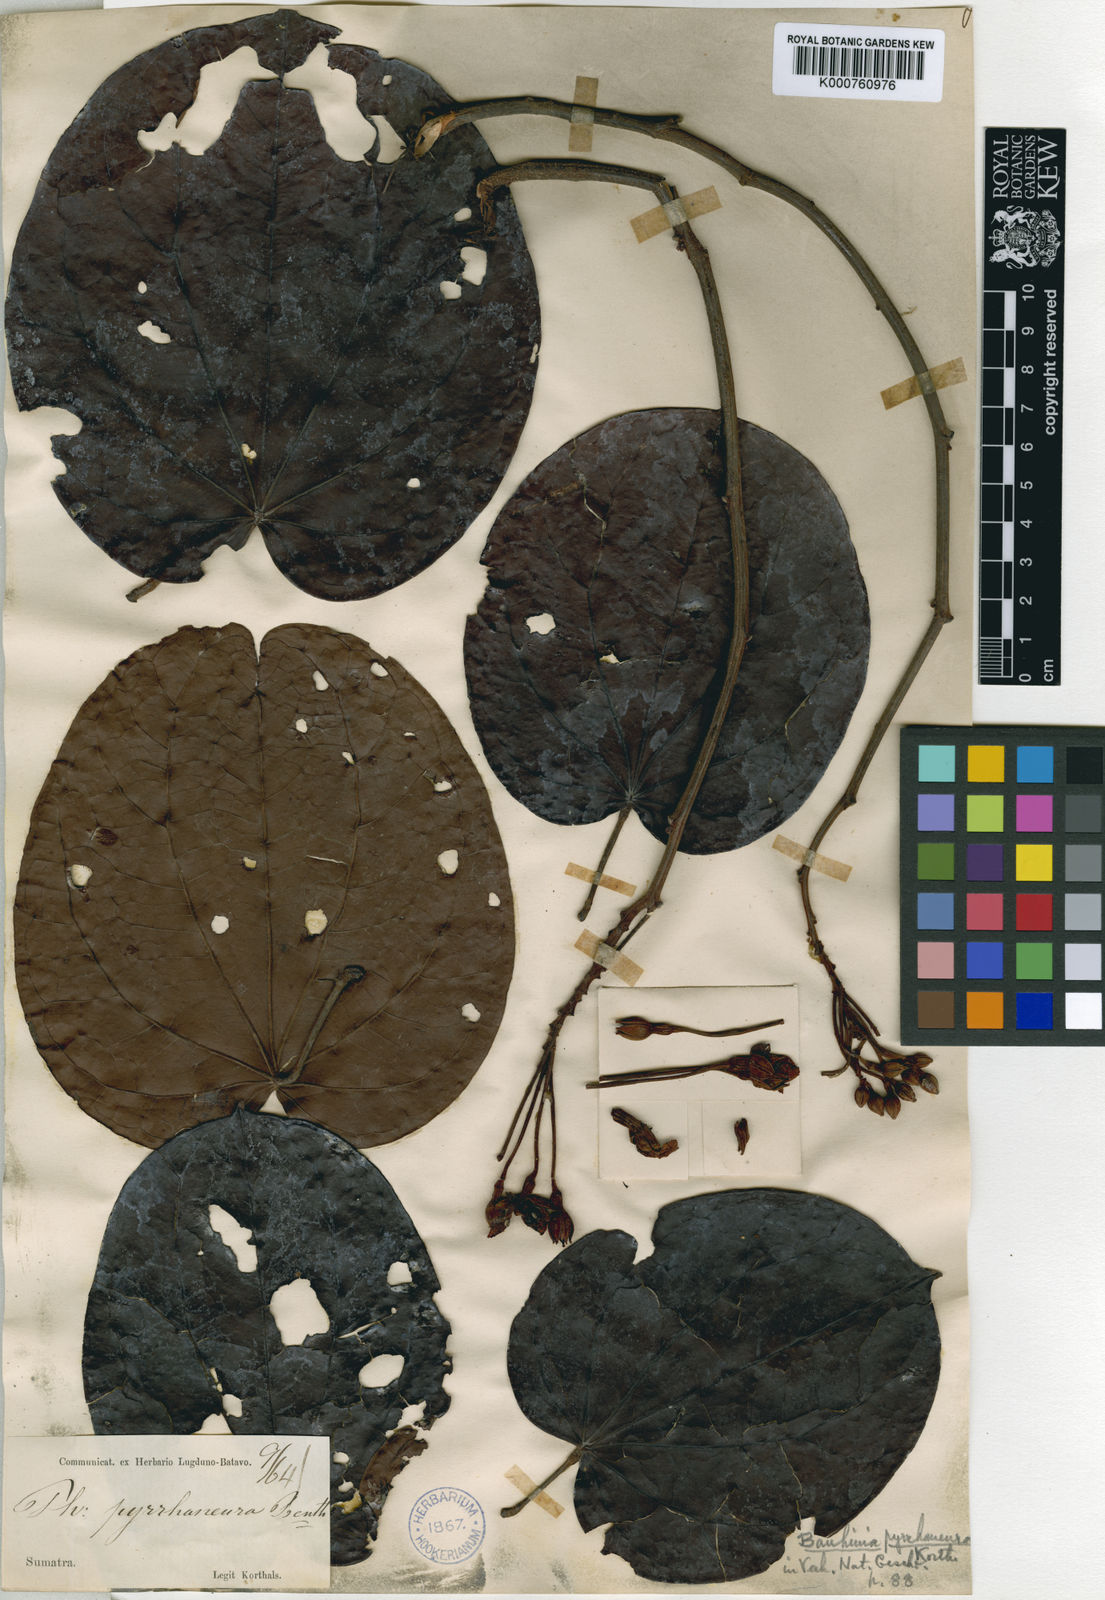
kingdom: Plantae
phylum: Tracheophyta
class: Magnoliopsida
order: Fabales
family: Fabaceae
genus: Phanera
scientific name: Phanera
